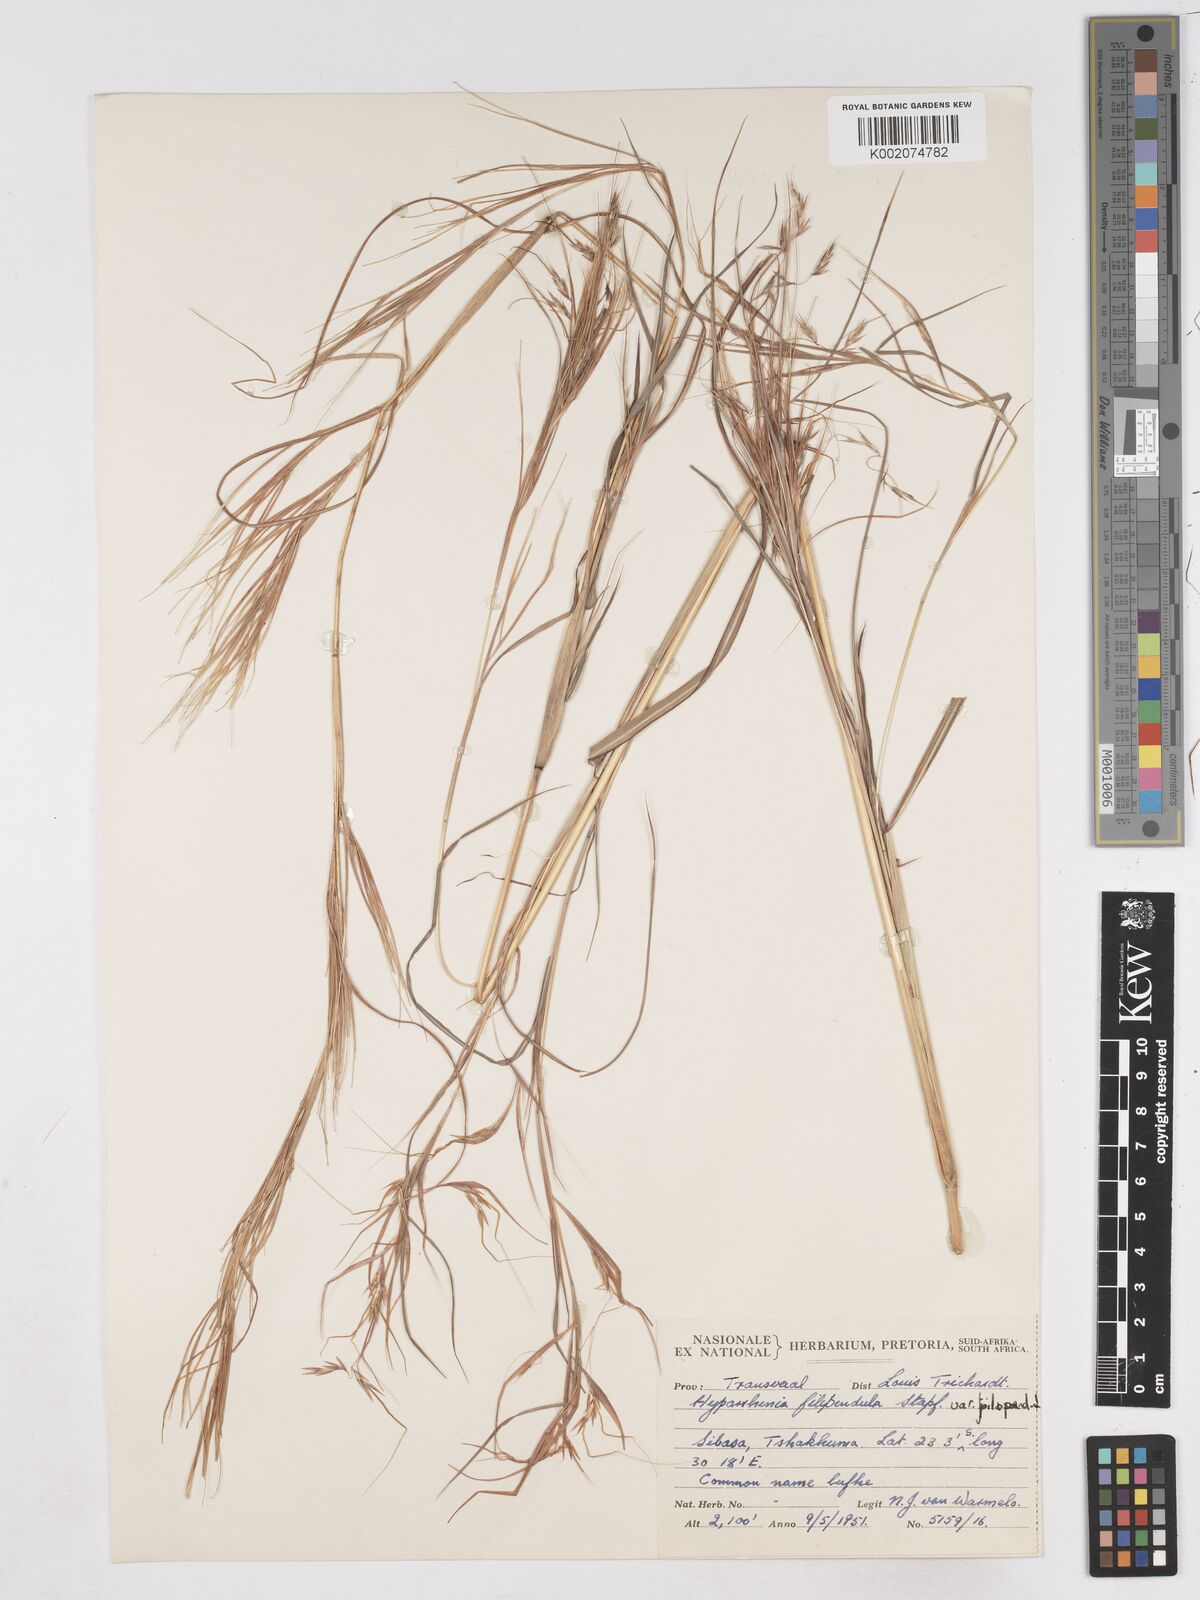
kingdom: Plantae
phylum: Tracheophyta
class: Liliopsida
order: Poales
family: Poaceae
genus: Hyparrhenia
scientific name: Hyparrhenia filipendula
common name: Tambookie grass
